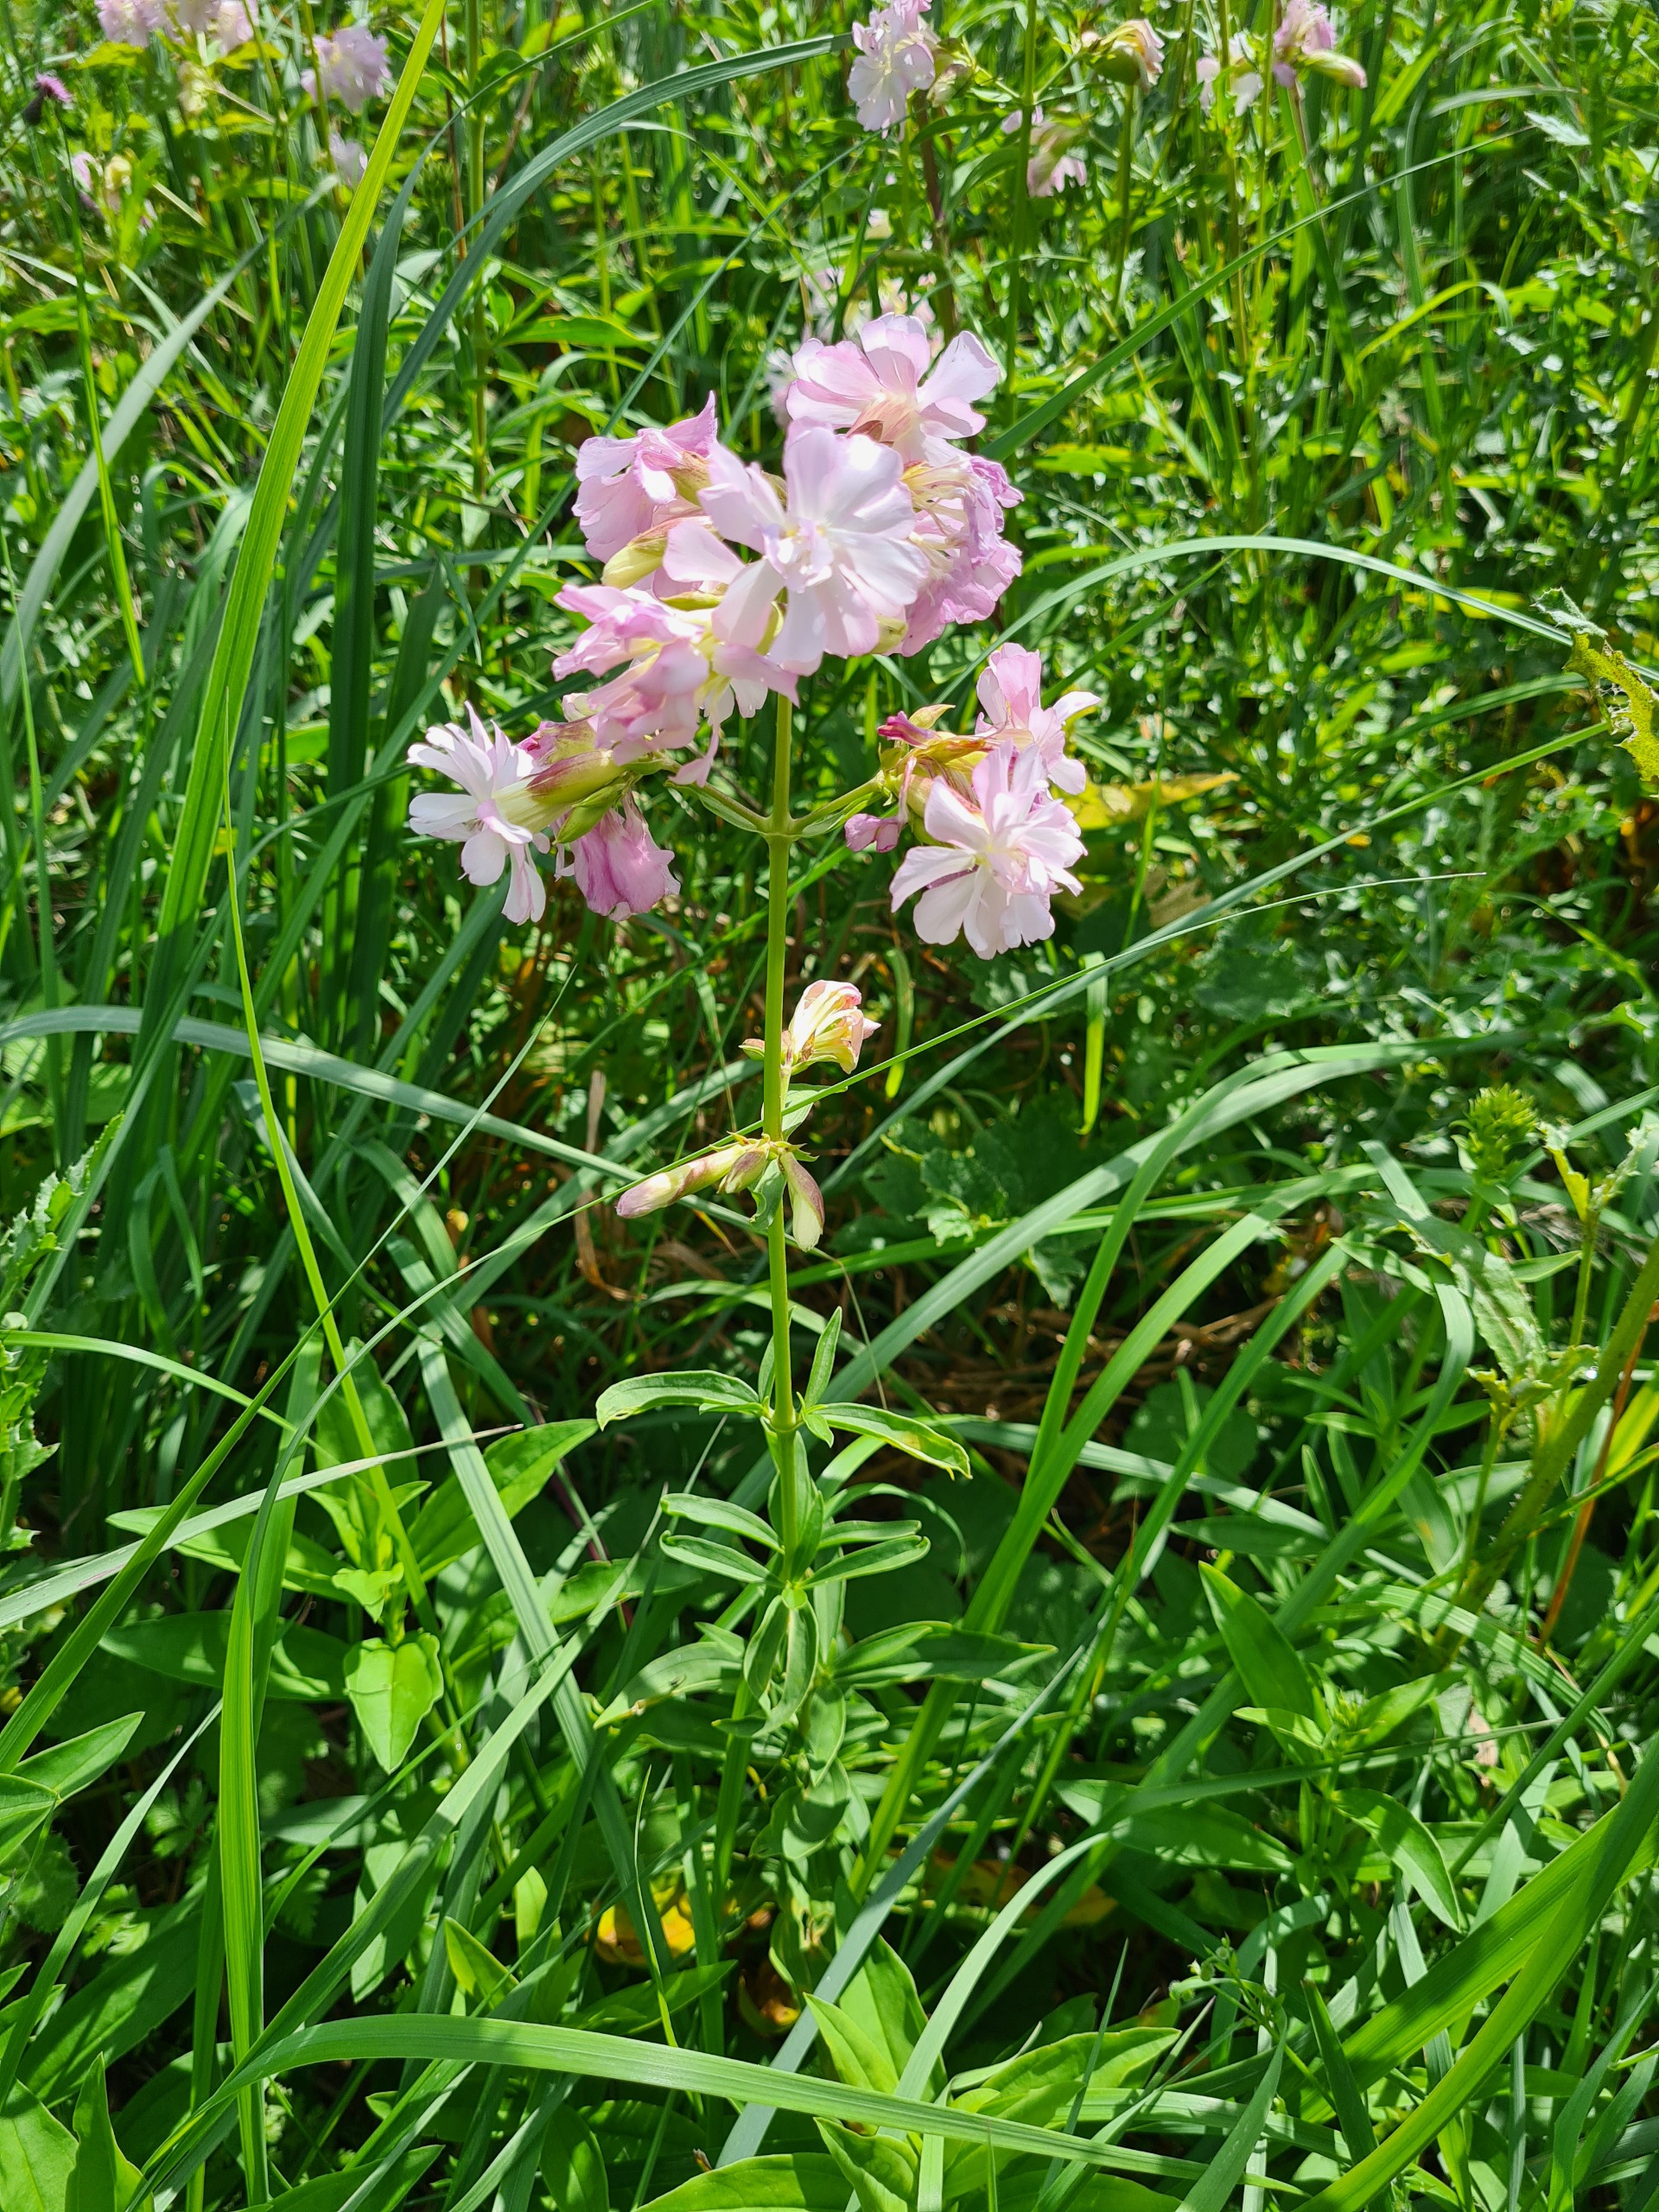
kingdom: Plantae
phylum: Tracheophyta
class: Magnoliopsida
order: Caryophyllales
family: Caryophyllaceae
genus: Saponaria
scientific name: Saponaria officinalis
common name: Sæbeurt
